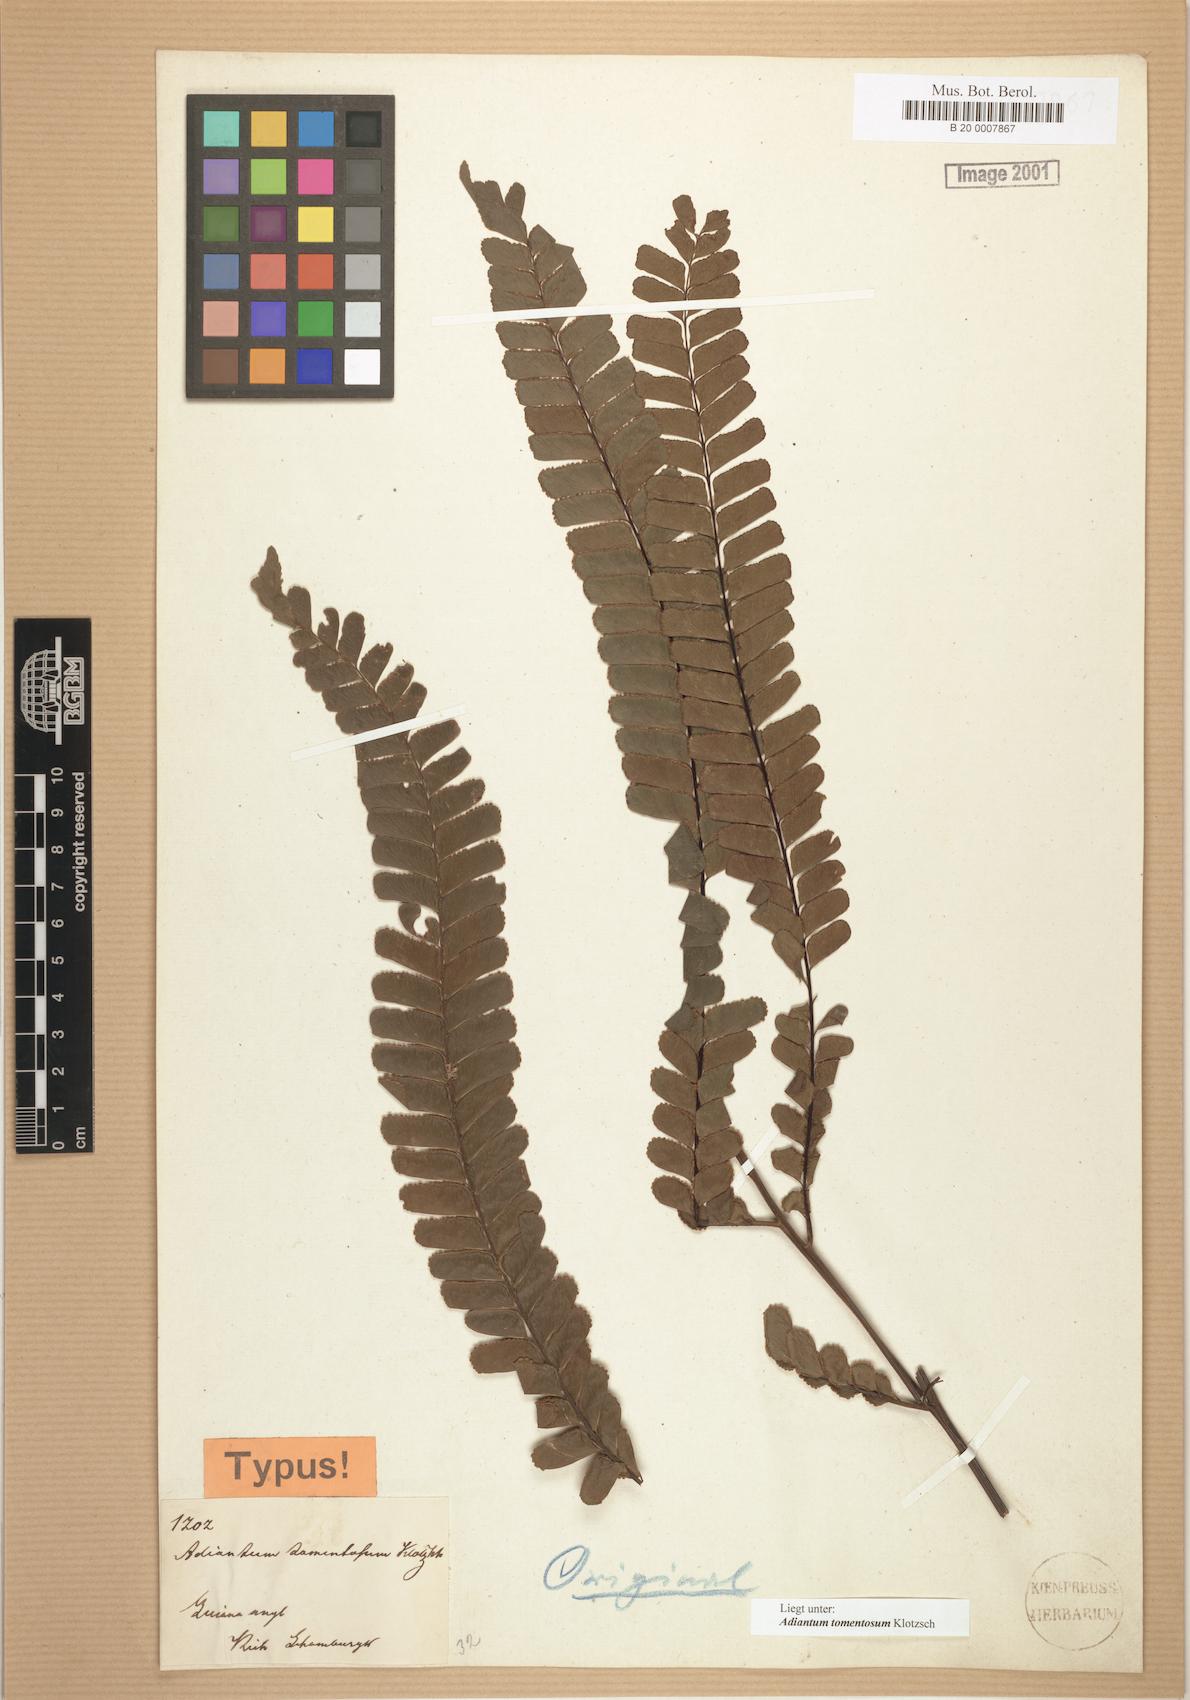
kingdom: Plantae
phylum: Tracheophyta
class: Polypodiopsida
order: Polypodiales
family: Pteridaceae
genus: Adiantum
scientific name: Adiantum tomentosum
